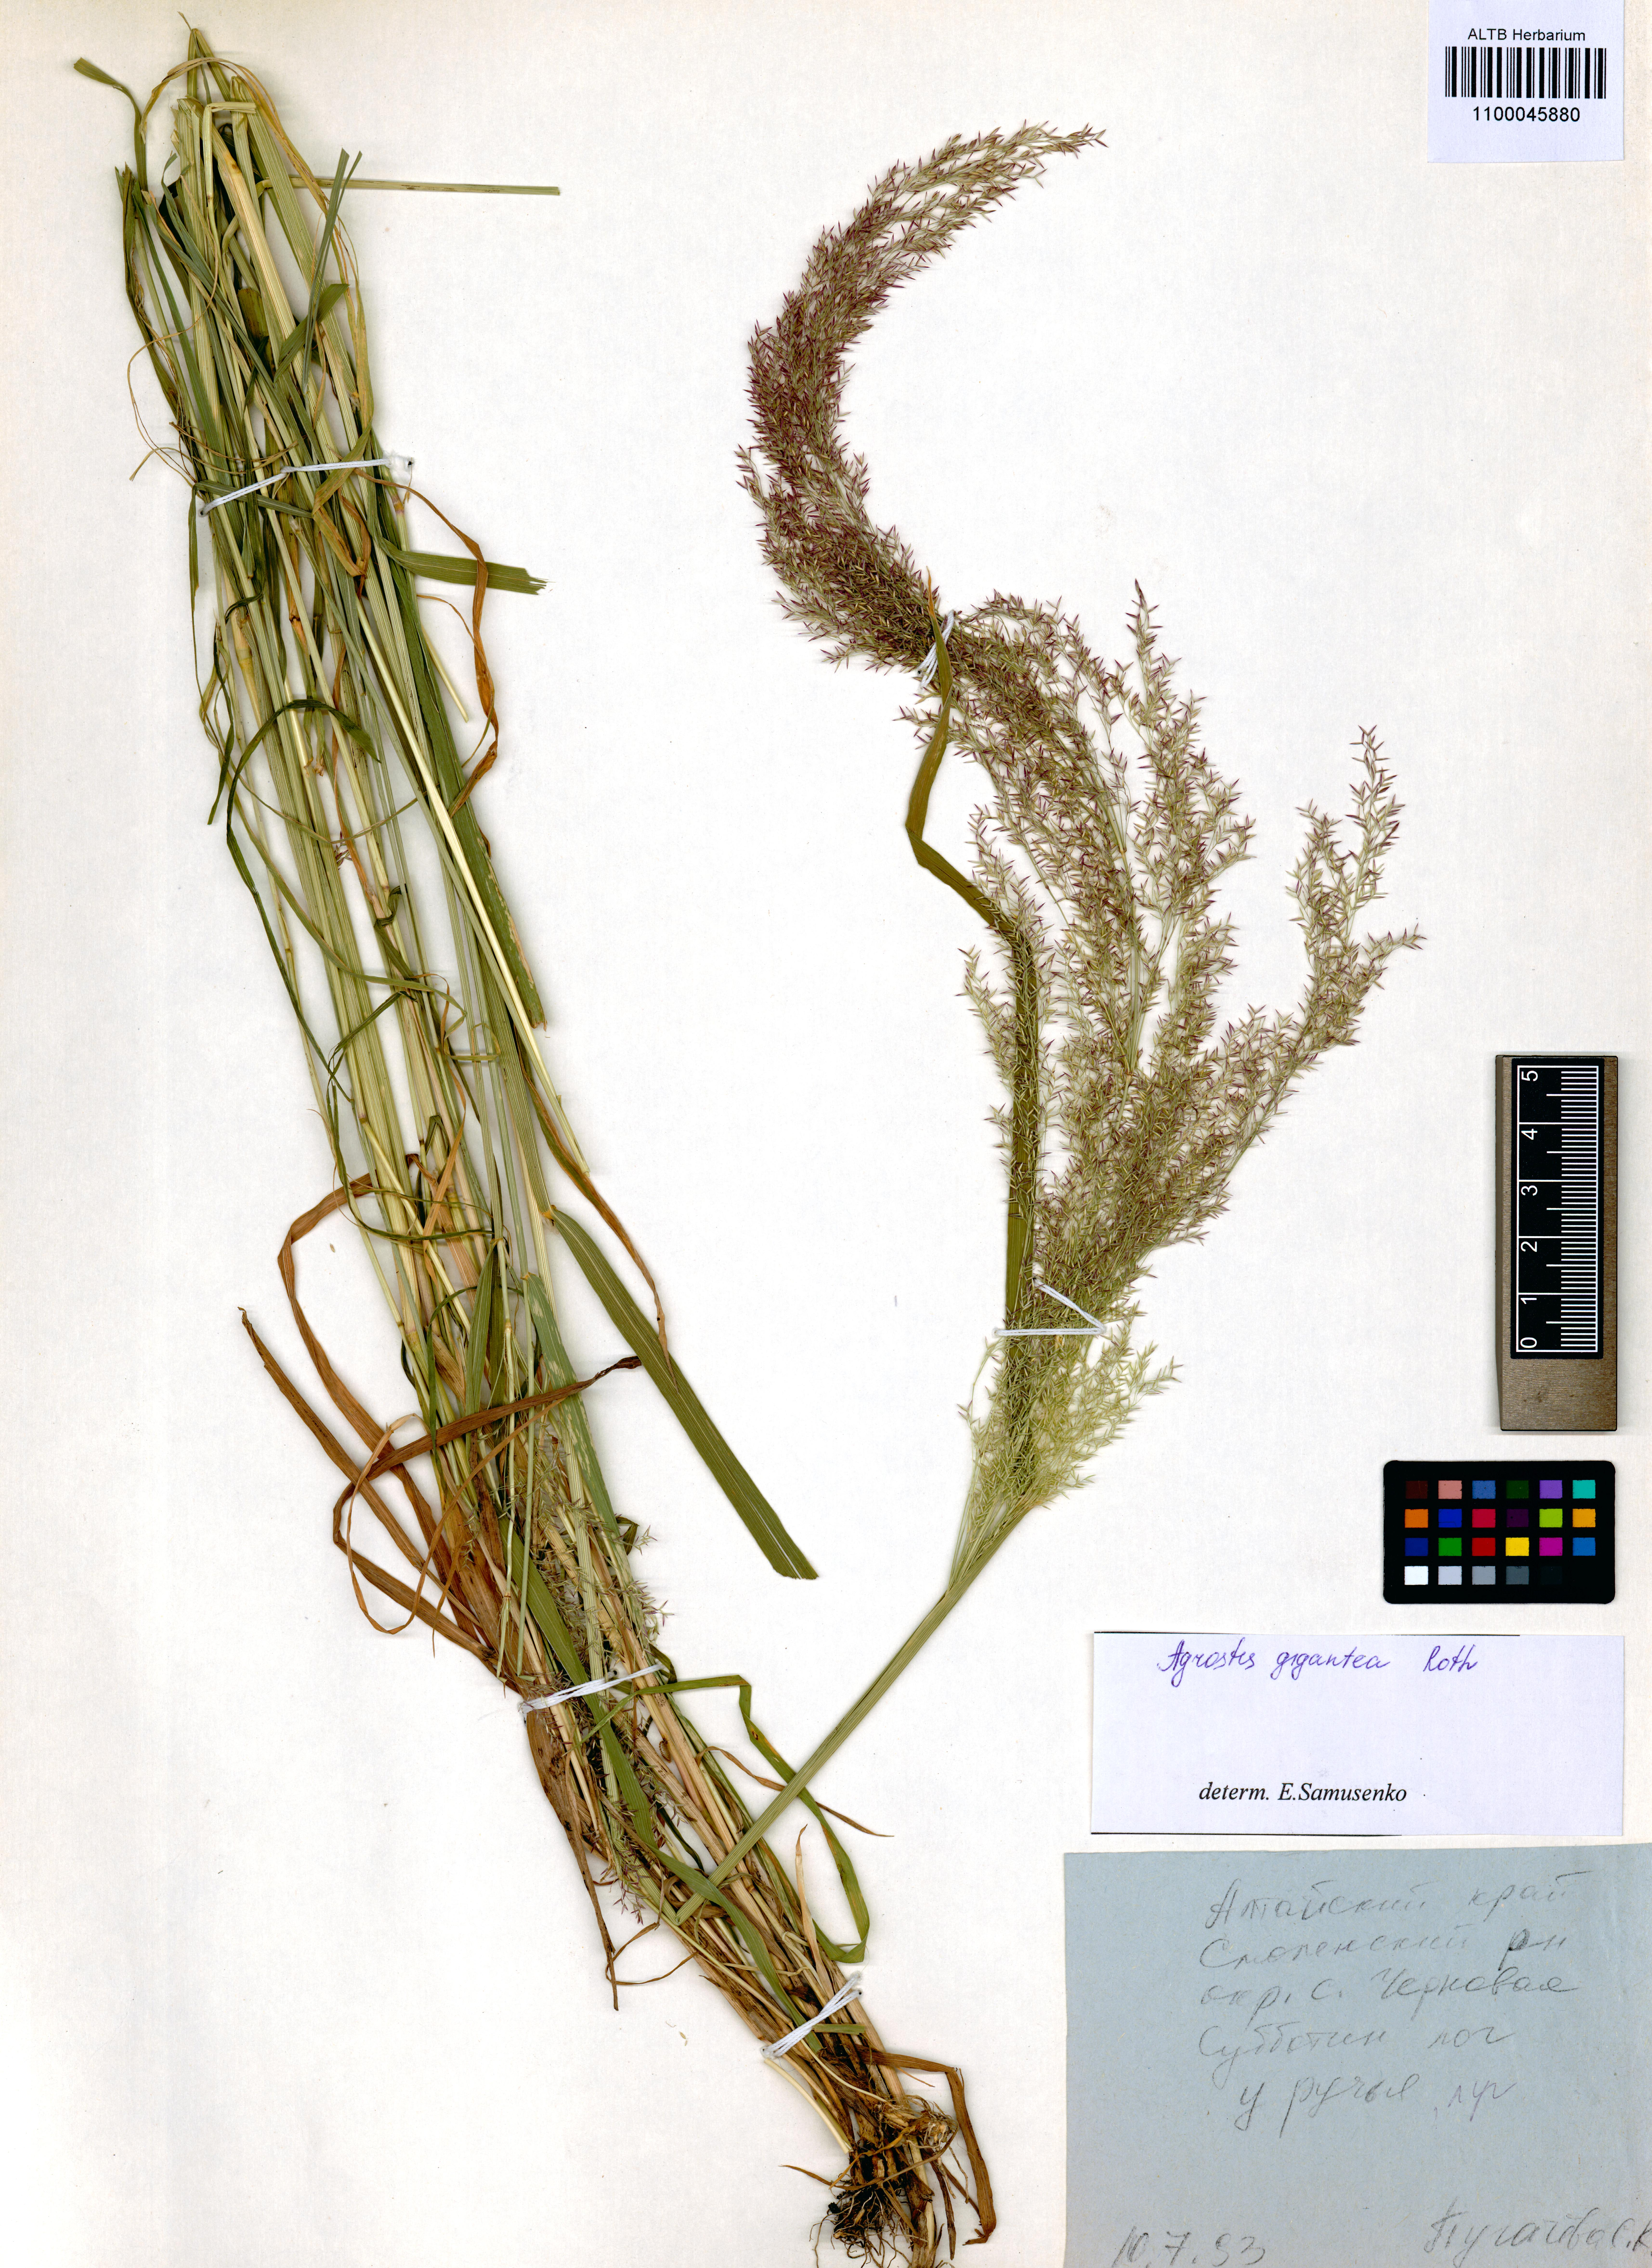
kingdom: Plantae
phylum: Tracheophyta
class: Liliopsida
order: Poales
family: Poaceae
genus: Agrostis
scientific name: Agrostis gigantea
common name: Black bent
